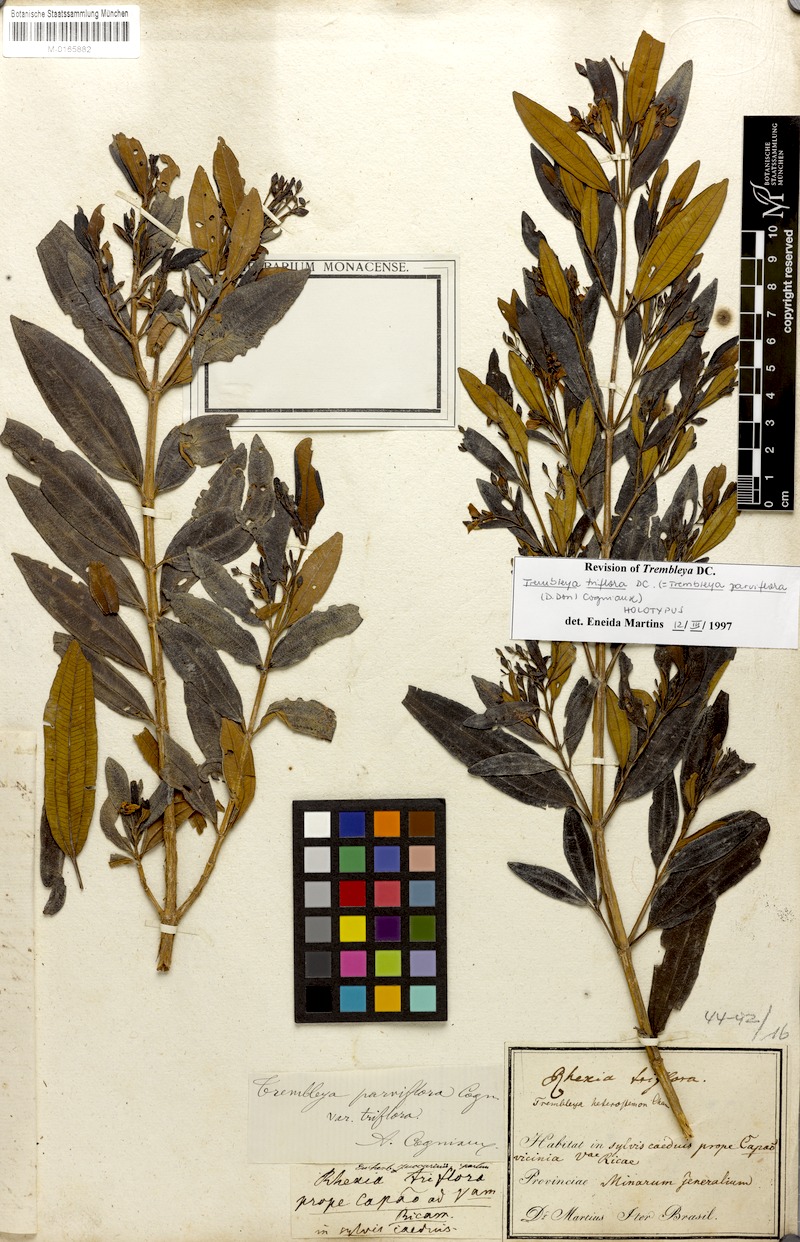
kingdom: Plantae
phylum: Tracheophyta
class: Magnoliopsida
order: Myrtales
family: Melastomataceae
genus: Microlicia
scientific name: Microlicia parviflora
